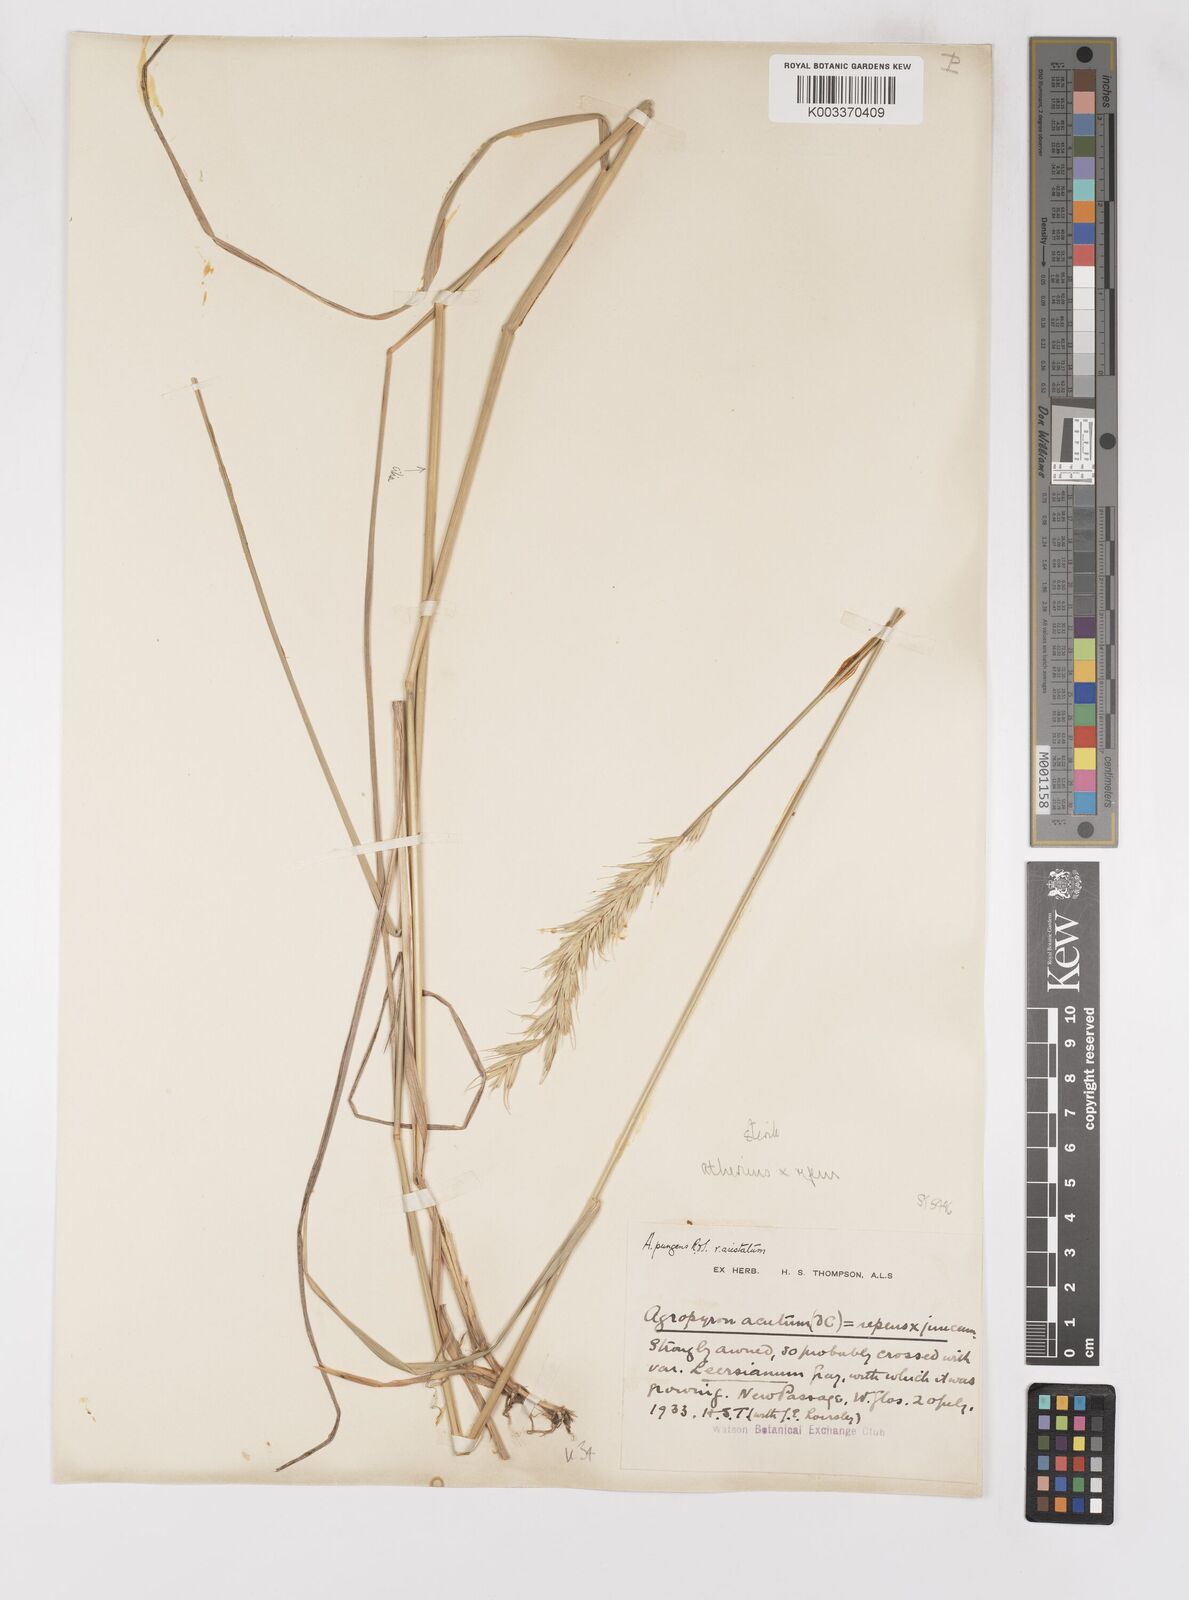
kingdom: Plantae
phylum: Tracheophyta
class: Liliopsida
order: Poales
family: Poaceae
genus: Elymus
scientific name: Elymus oliveri
